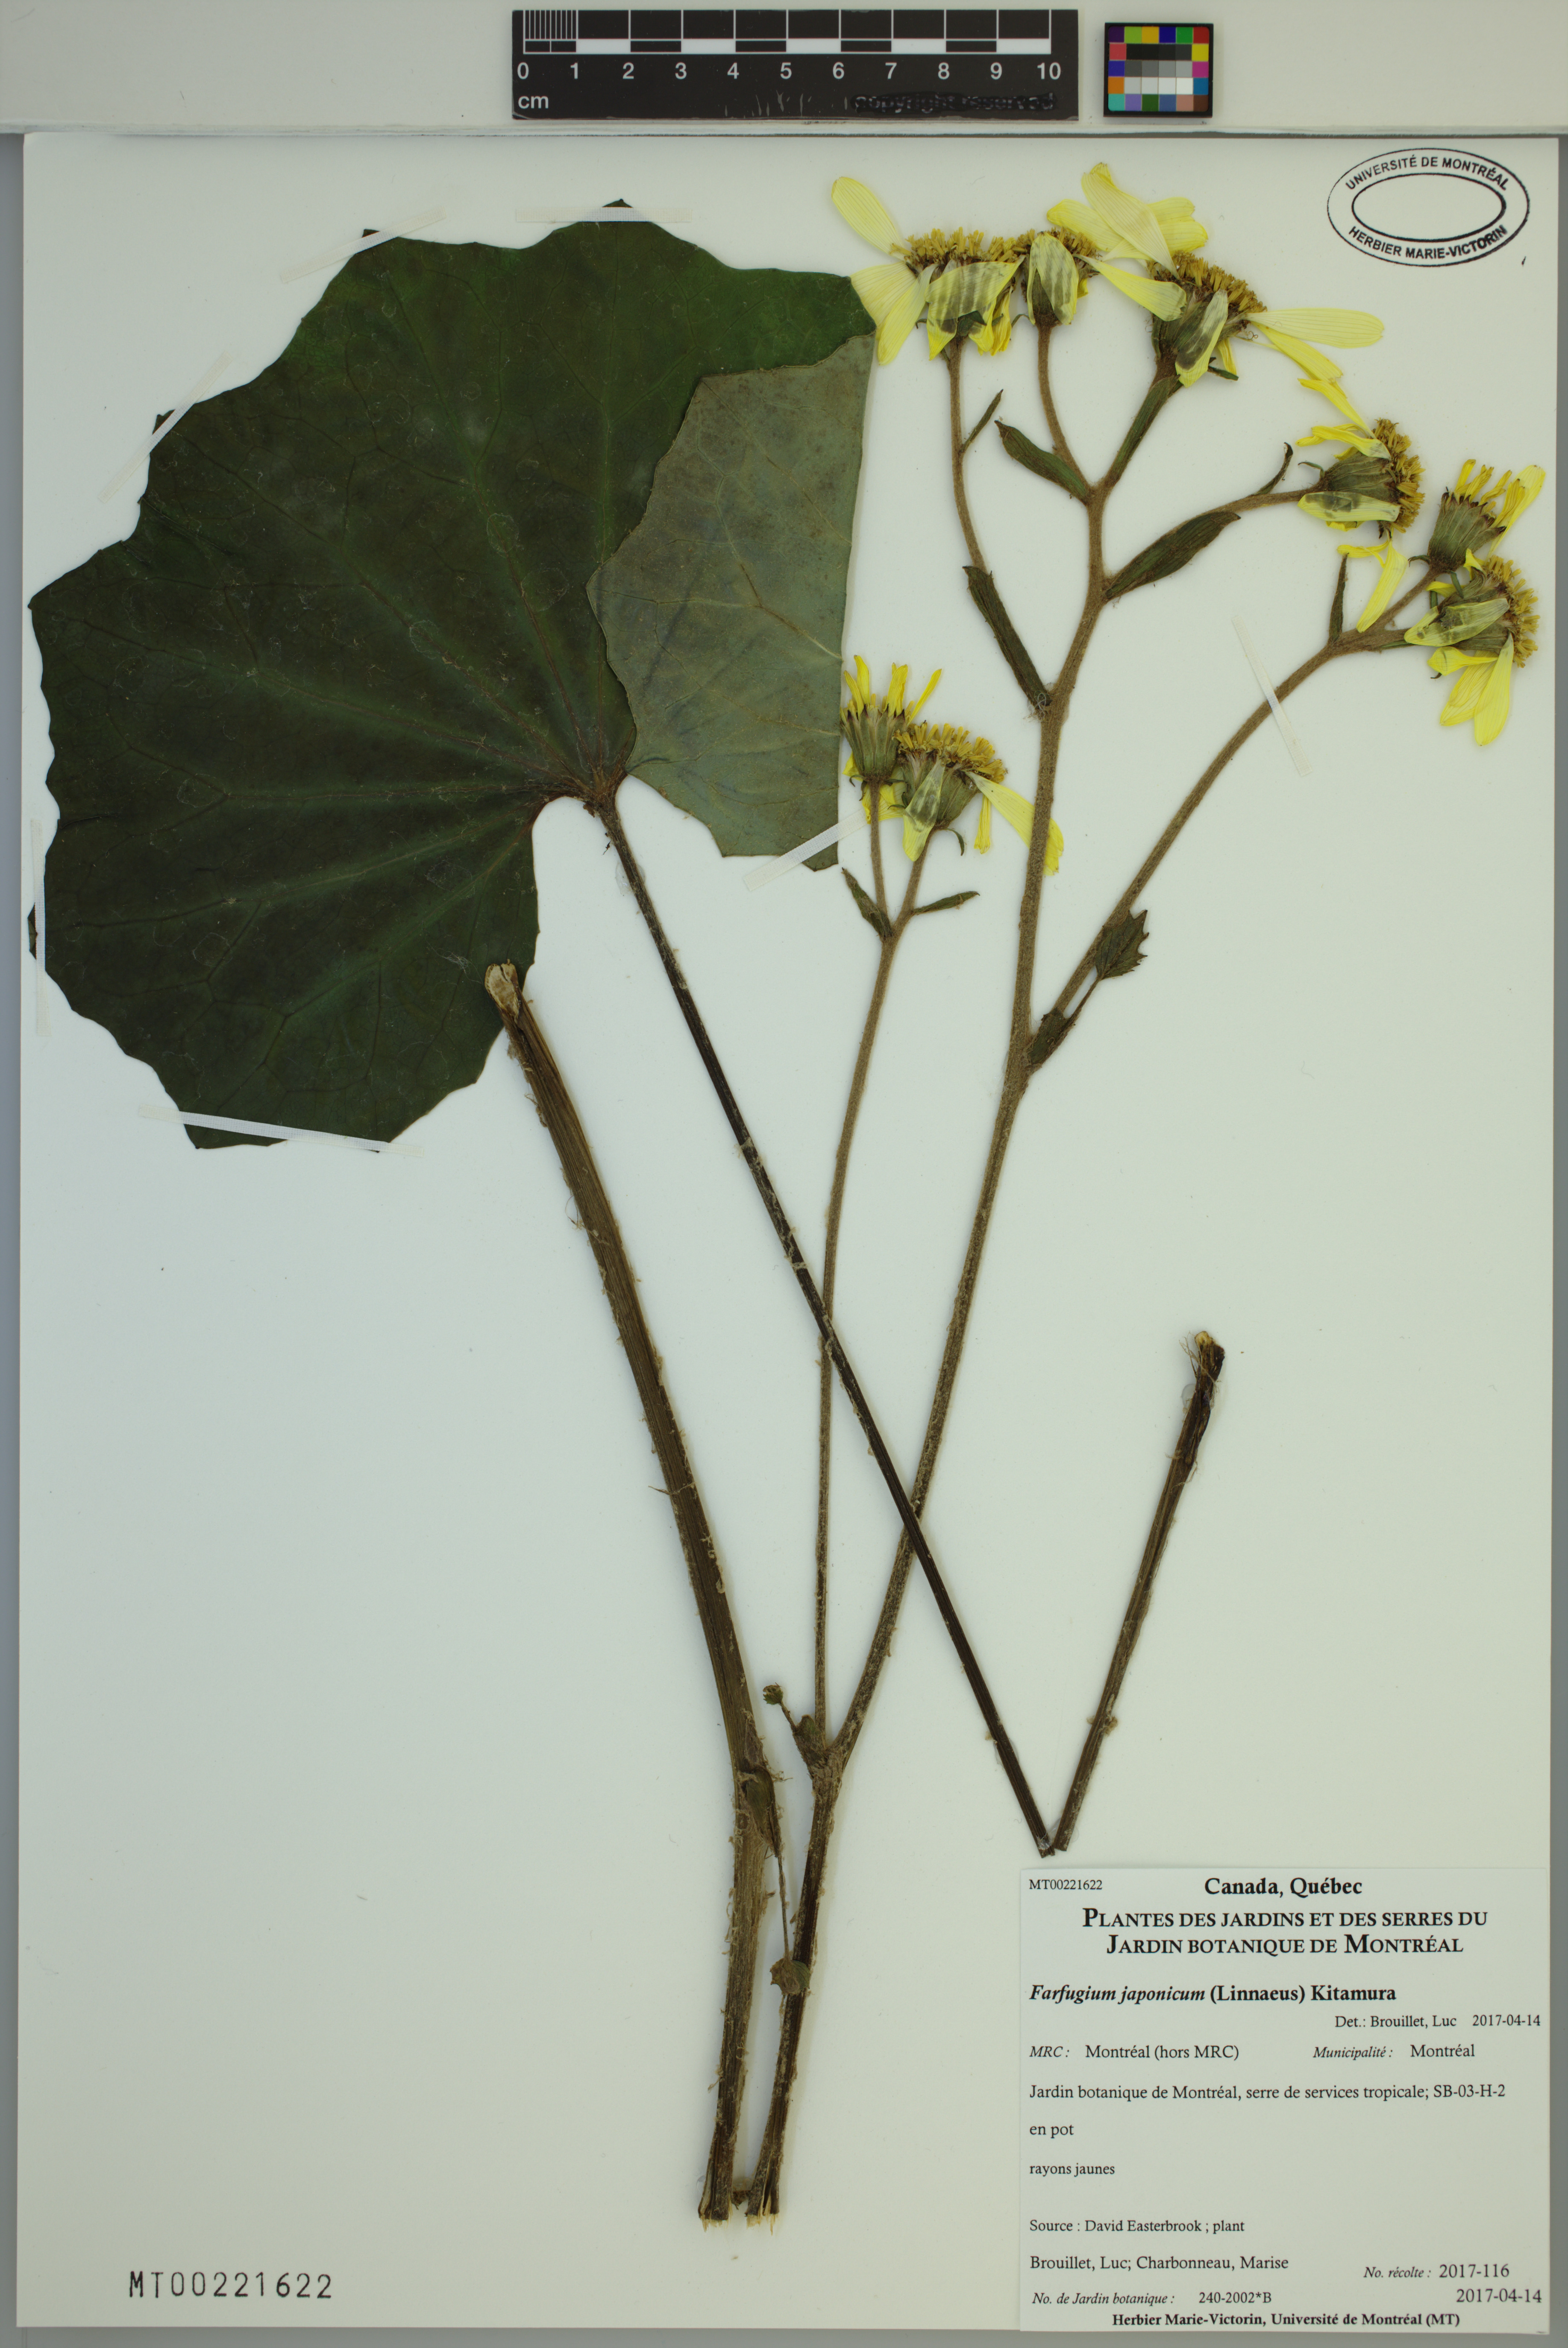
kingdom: Plantae
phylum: Tracheophyta
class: Magnoliopsida
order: Asterales
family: Asteraceae
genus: Farfugium
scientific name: Farfugium japonicum
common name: Leopardplant
